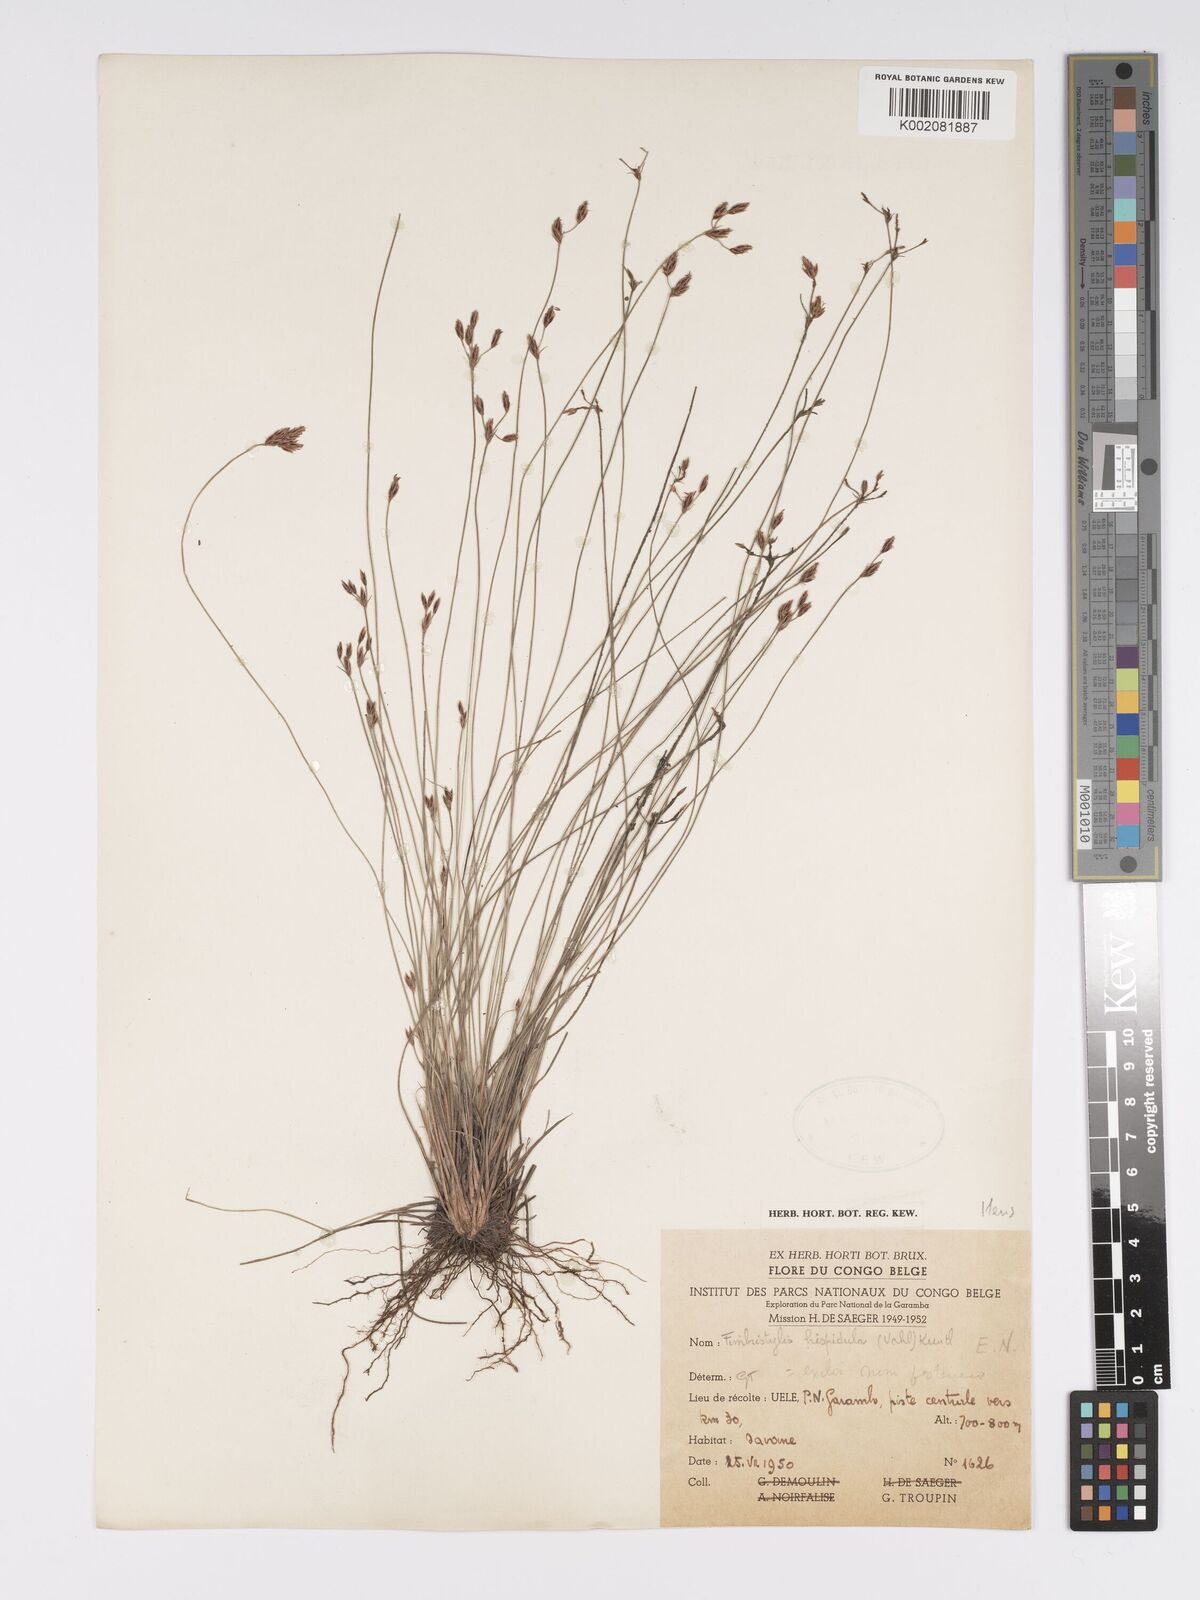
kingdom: Plantae
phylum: Tracheophyta
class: Liliopsida
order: Poales
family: Cyperaceae
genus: Bulbostylis
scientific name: Bulbostylis hispidula
